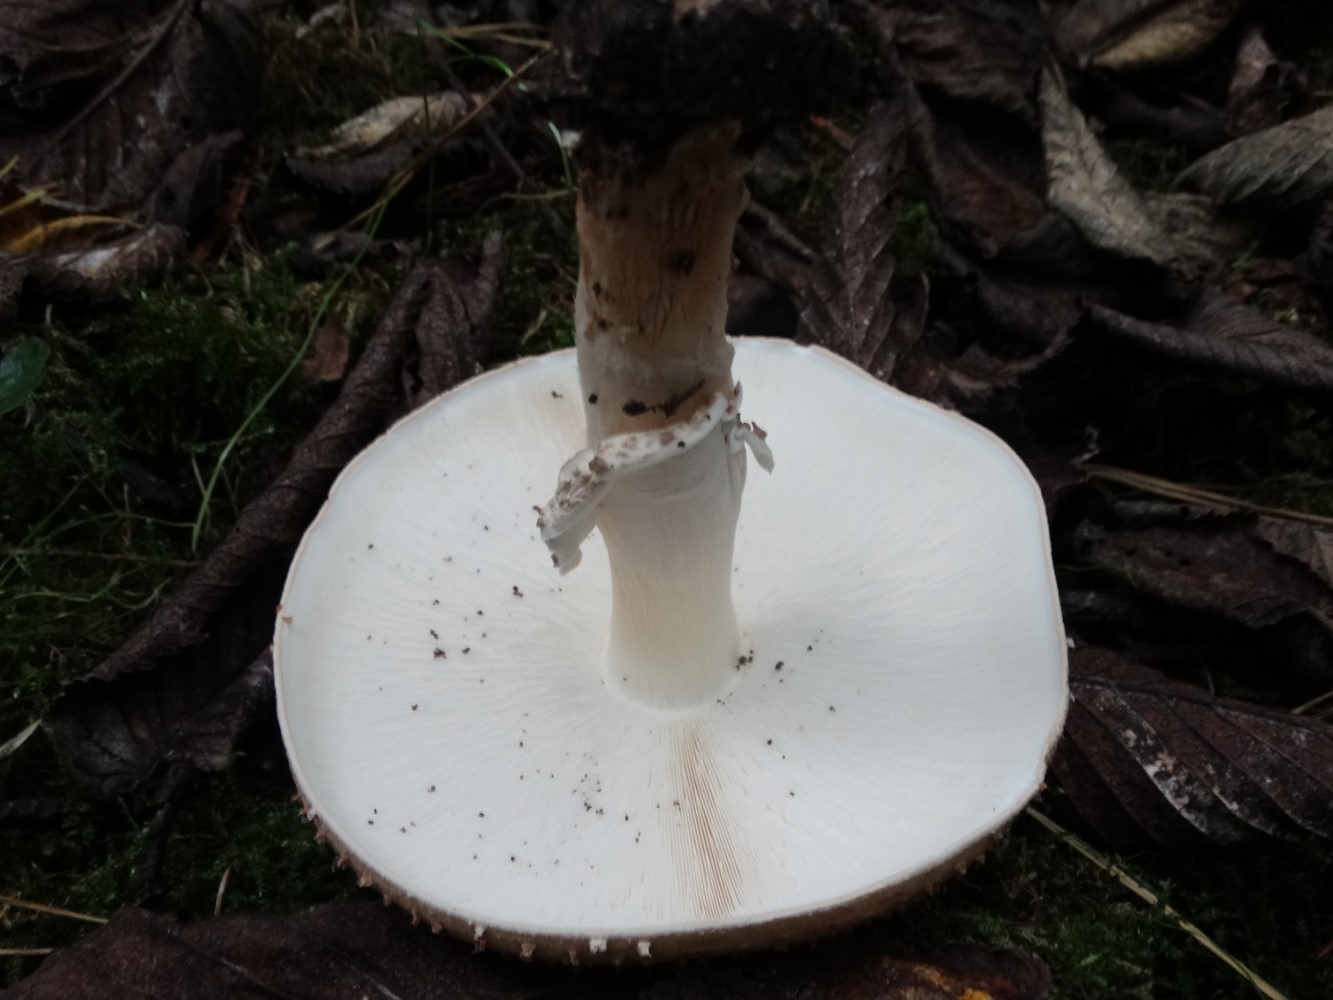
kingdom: Fungi
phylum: Basidiomycota
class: Agaricomycetes
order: Agaricales
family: Agaricaceae
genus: Echinoderma
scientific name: Echinoderma asperum
